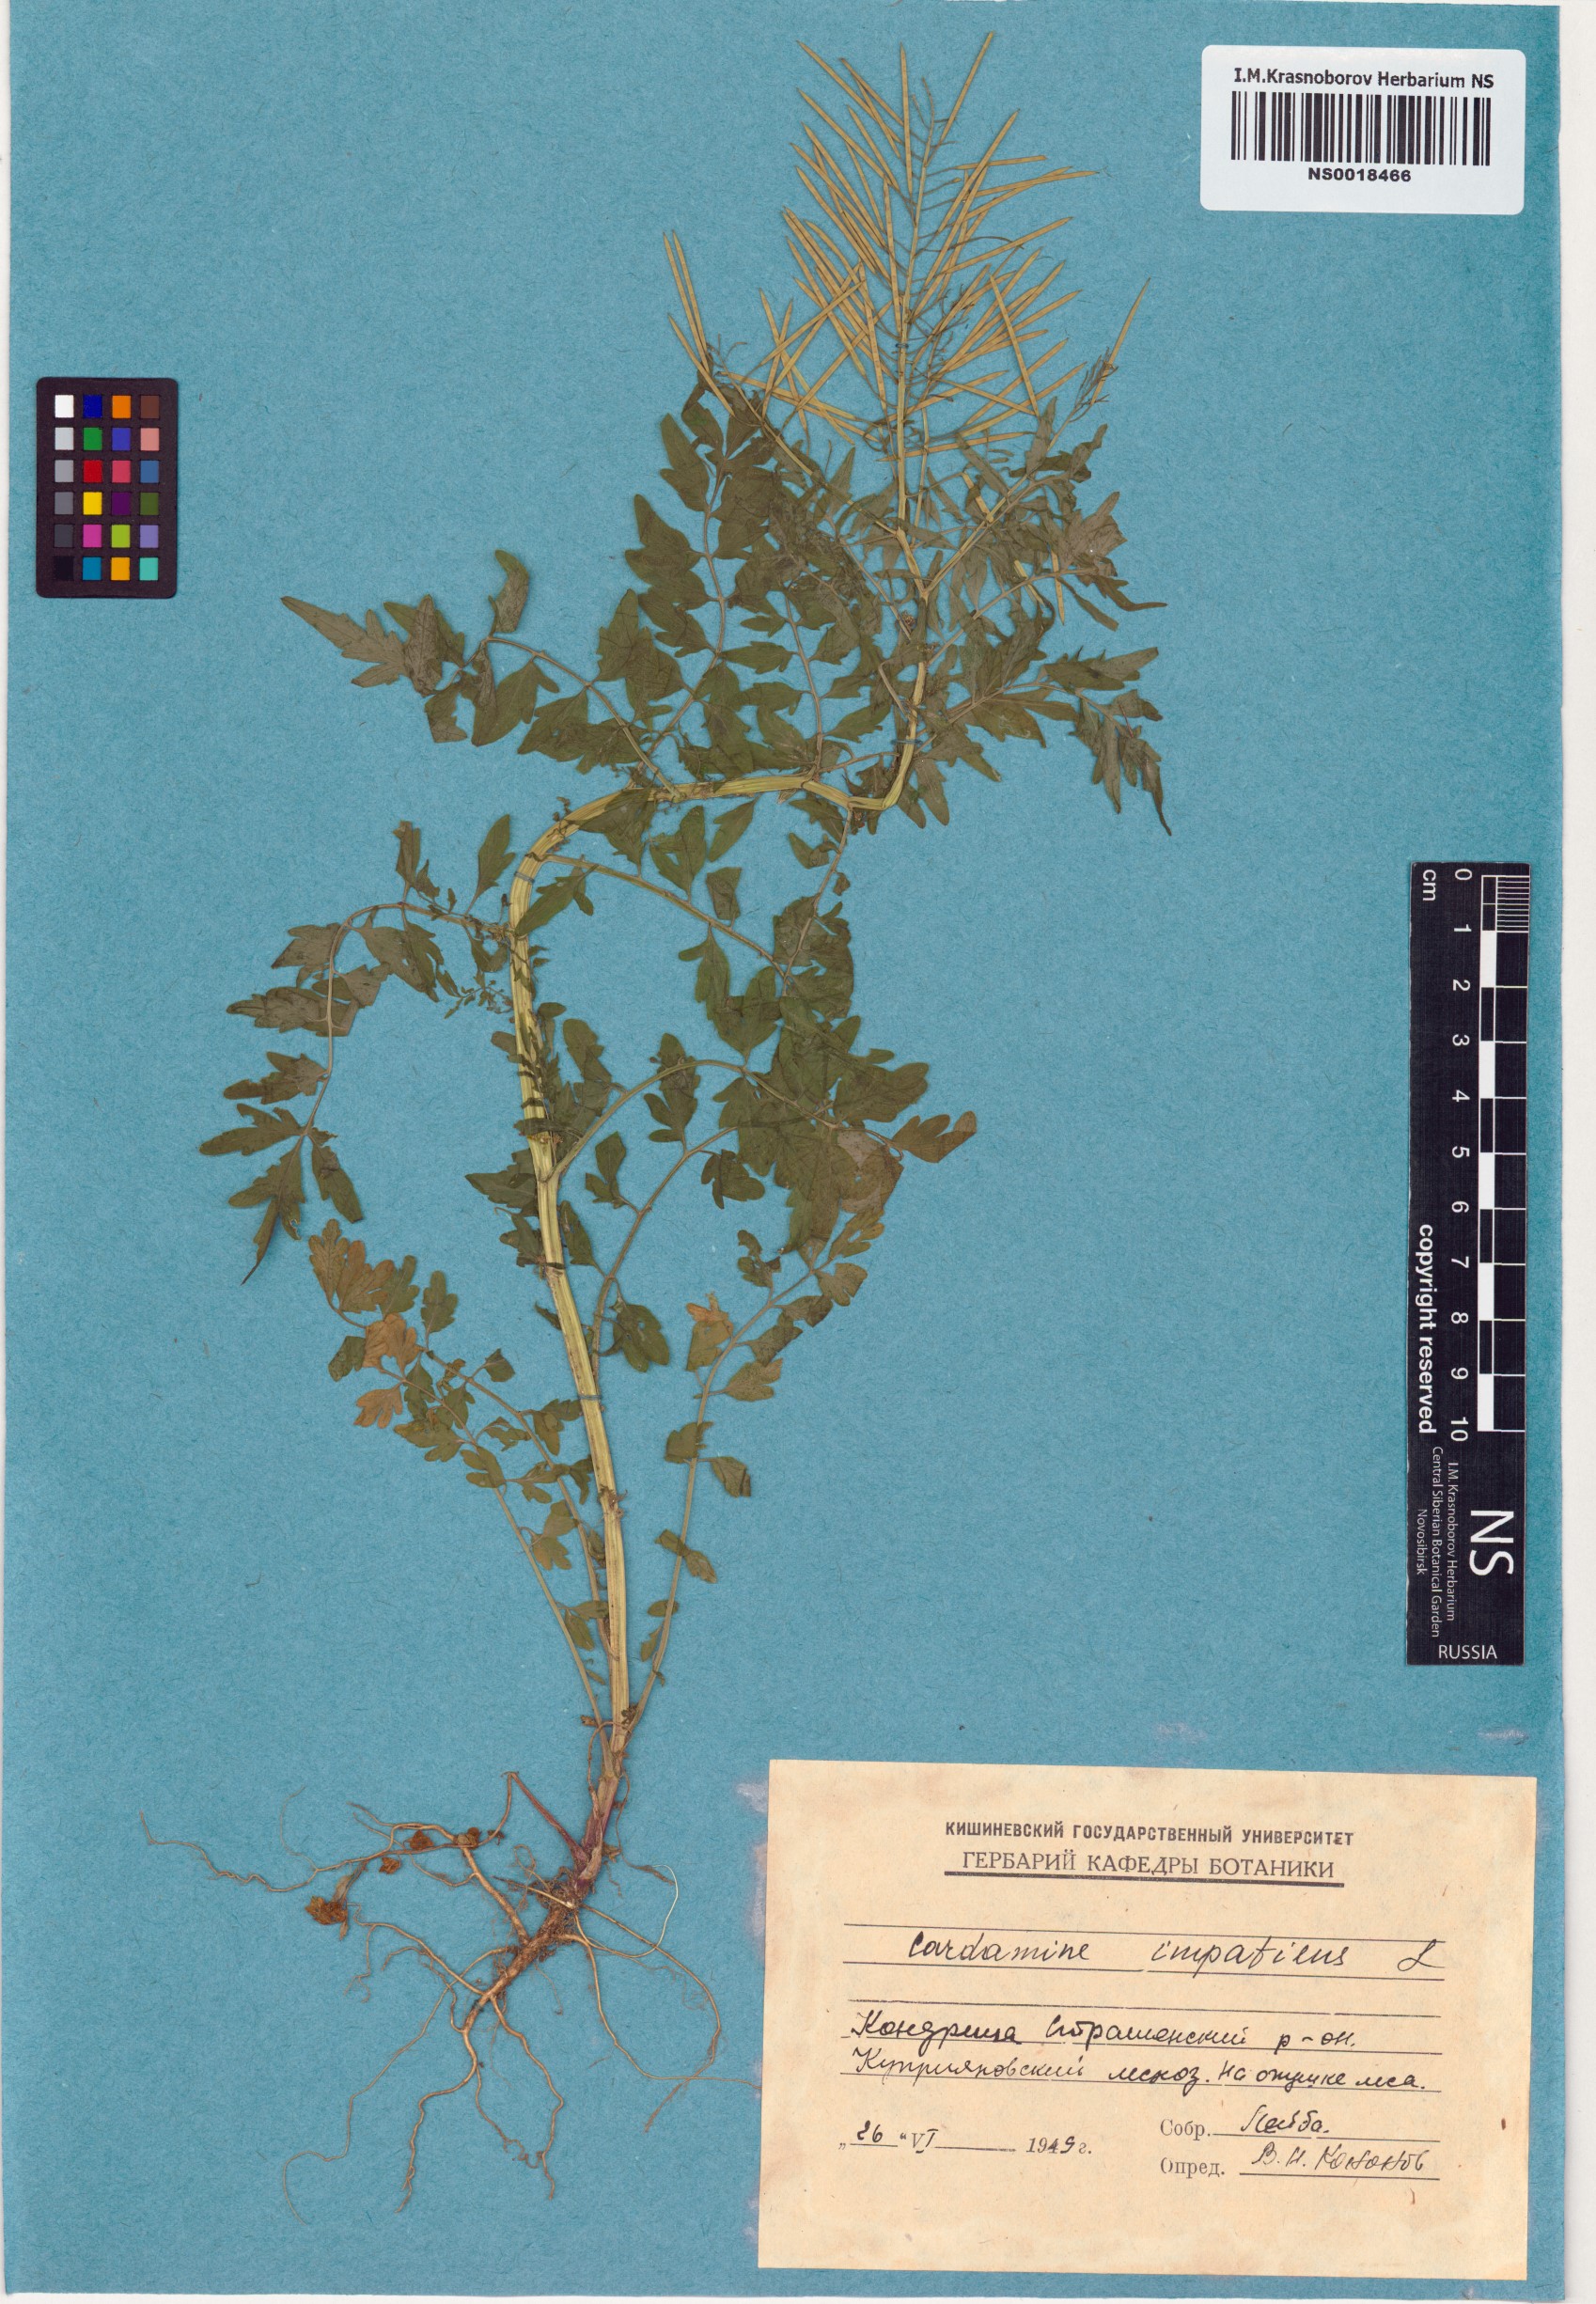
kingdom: Plantae
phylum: Tracheophyta
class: Magnoliopsida
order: Brassicales
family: Brassicaceae
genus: Cardamine
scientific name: Cardamine impatiens
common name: Narrow-leaved bitter-cress
